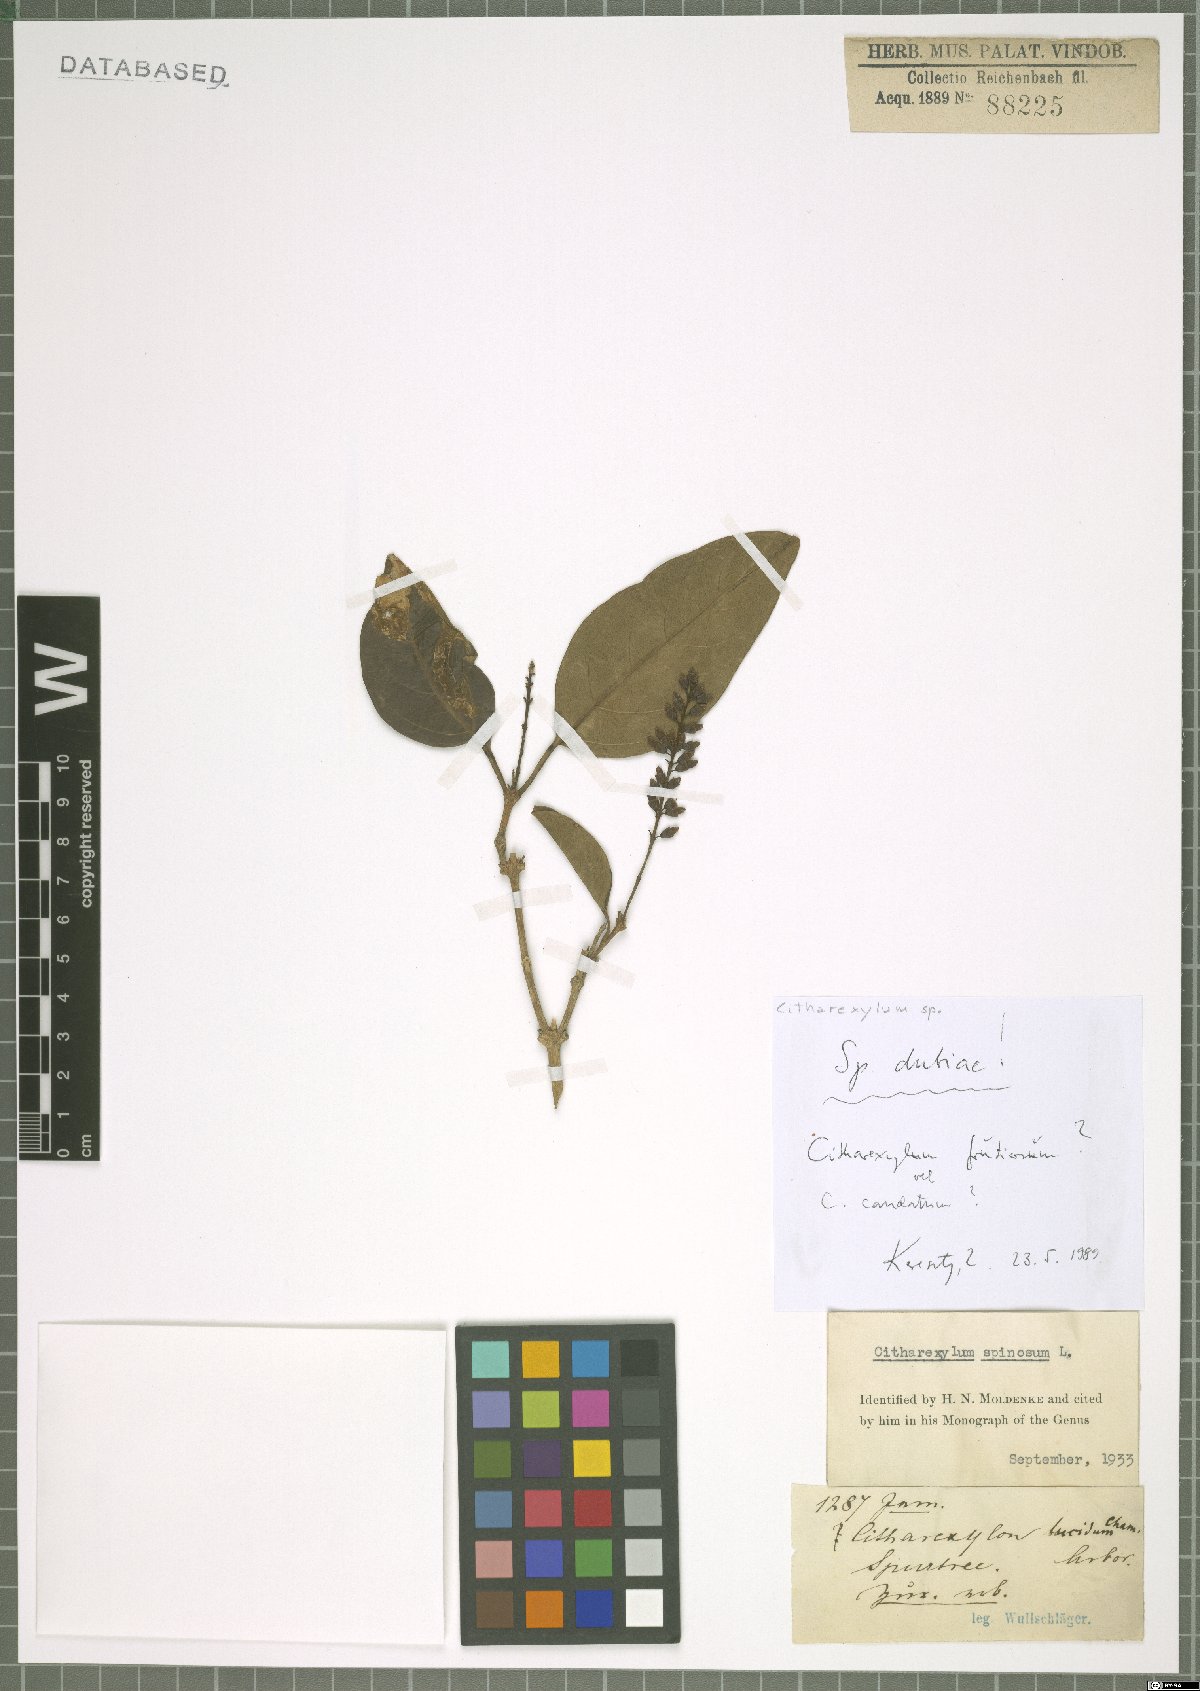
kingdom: Plantae
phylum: Tracheophyta
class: Magnoliopsida
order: Lamiales
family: Verbenaceae
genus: Citharexylum
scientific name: Citharexylum
